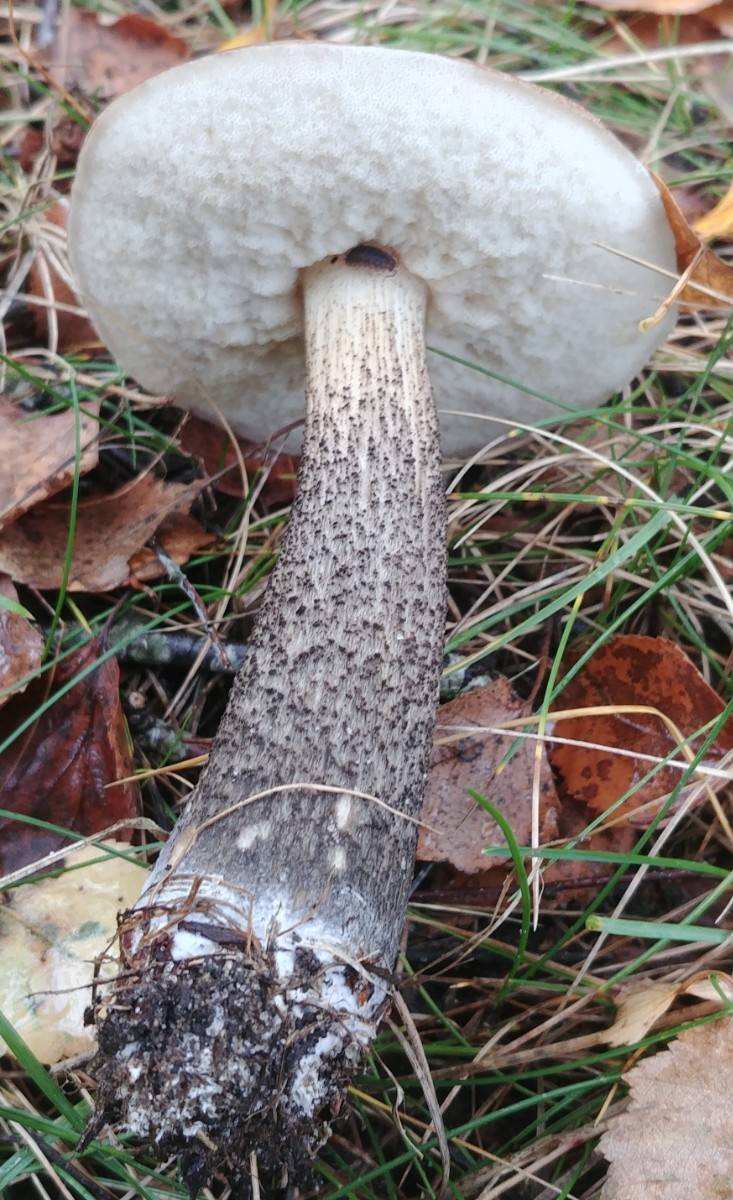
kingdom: Fungi
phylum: Basidiomycota
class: Agaricomycetes
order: Boletales
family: Boletaceae
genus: Leccinum
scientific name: Leccinum scabrum
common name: brun skælrørhat
